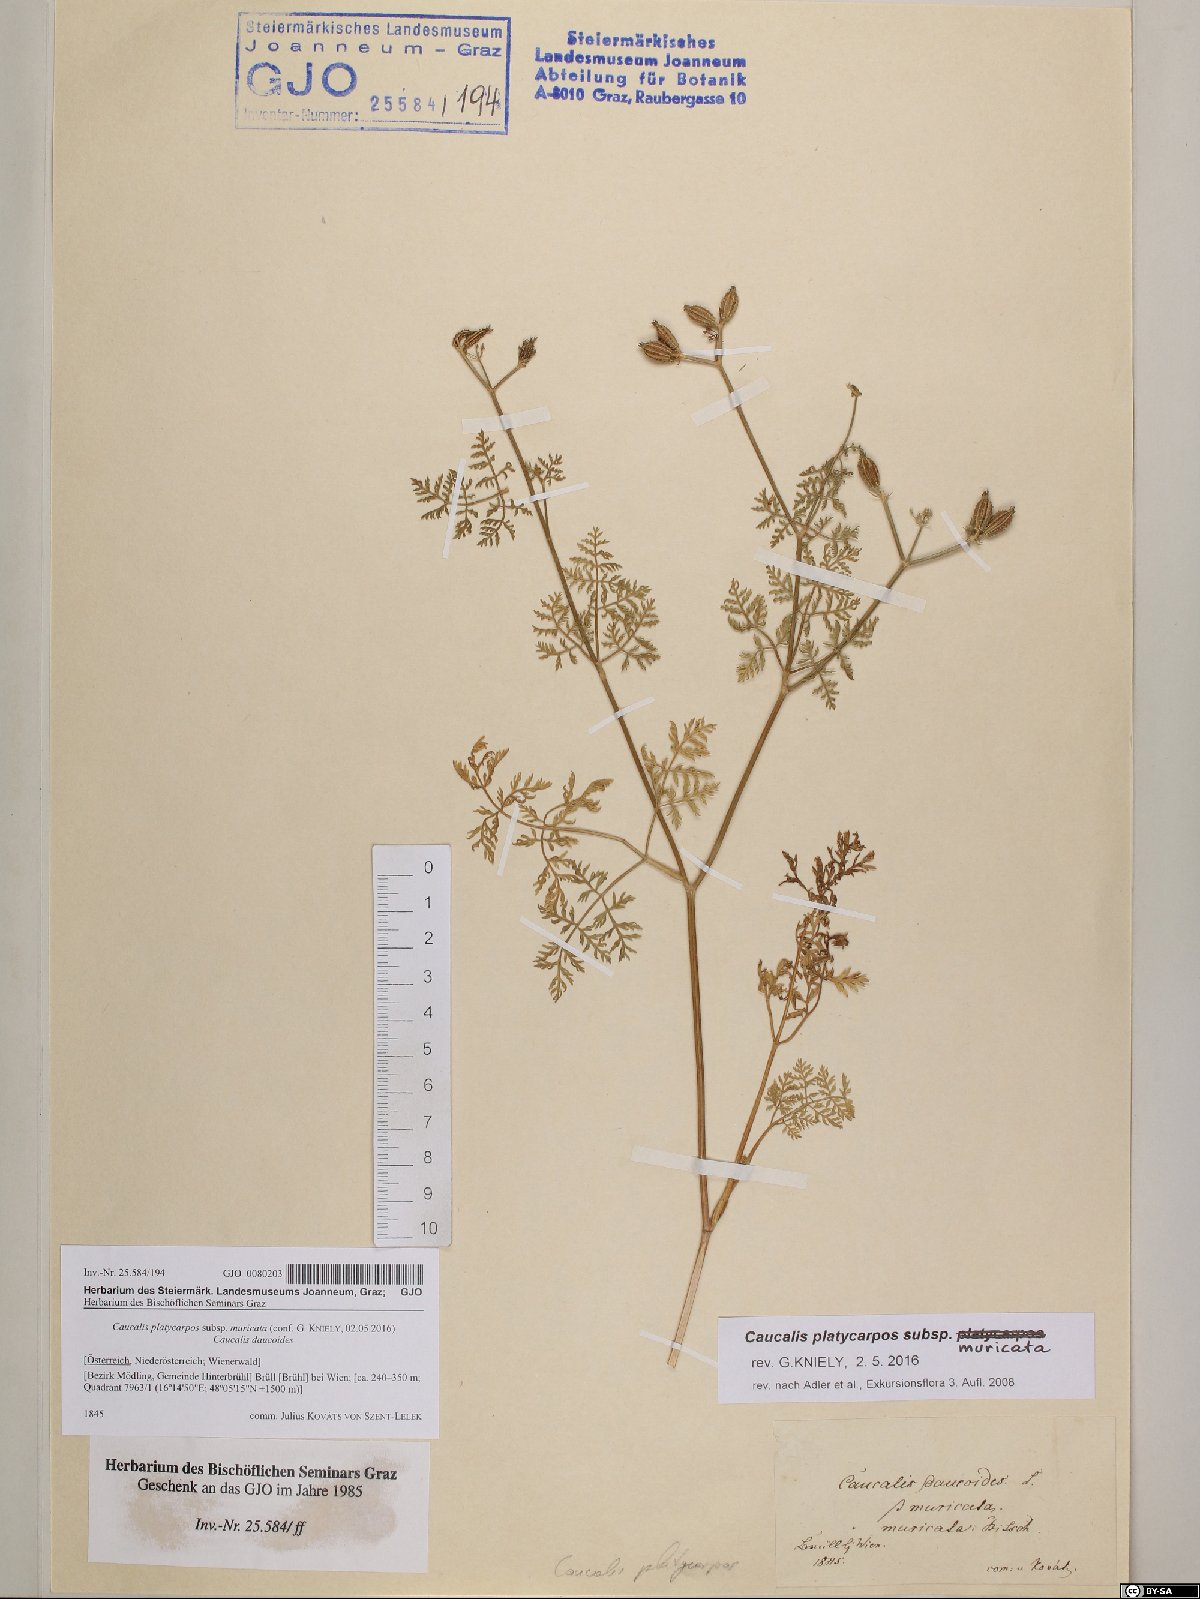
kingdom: Plantae
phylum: Tracheophyta
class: Magnoliopsida
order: Apiales
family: Apiaceae
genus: Caucalis
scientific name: Caucalis platycarpos
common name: Small bur-parsley
